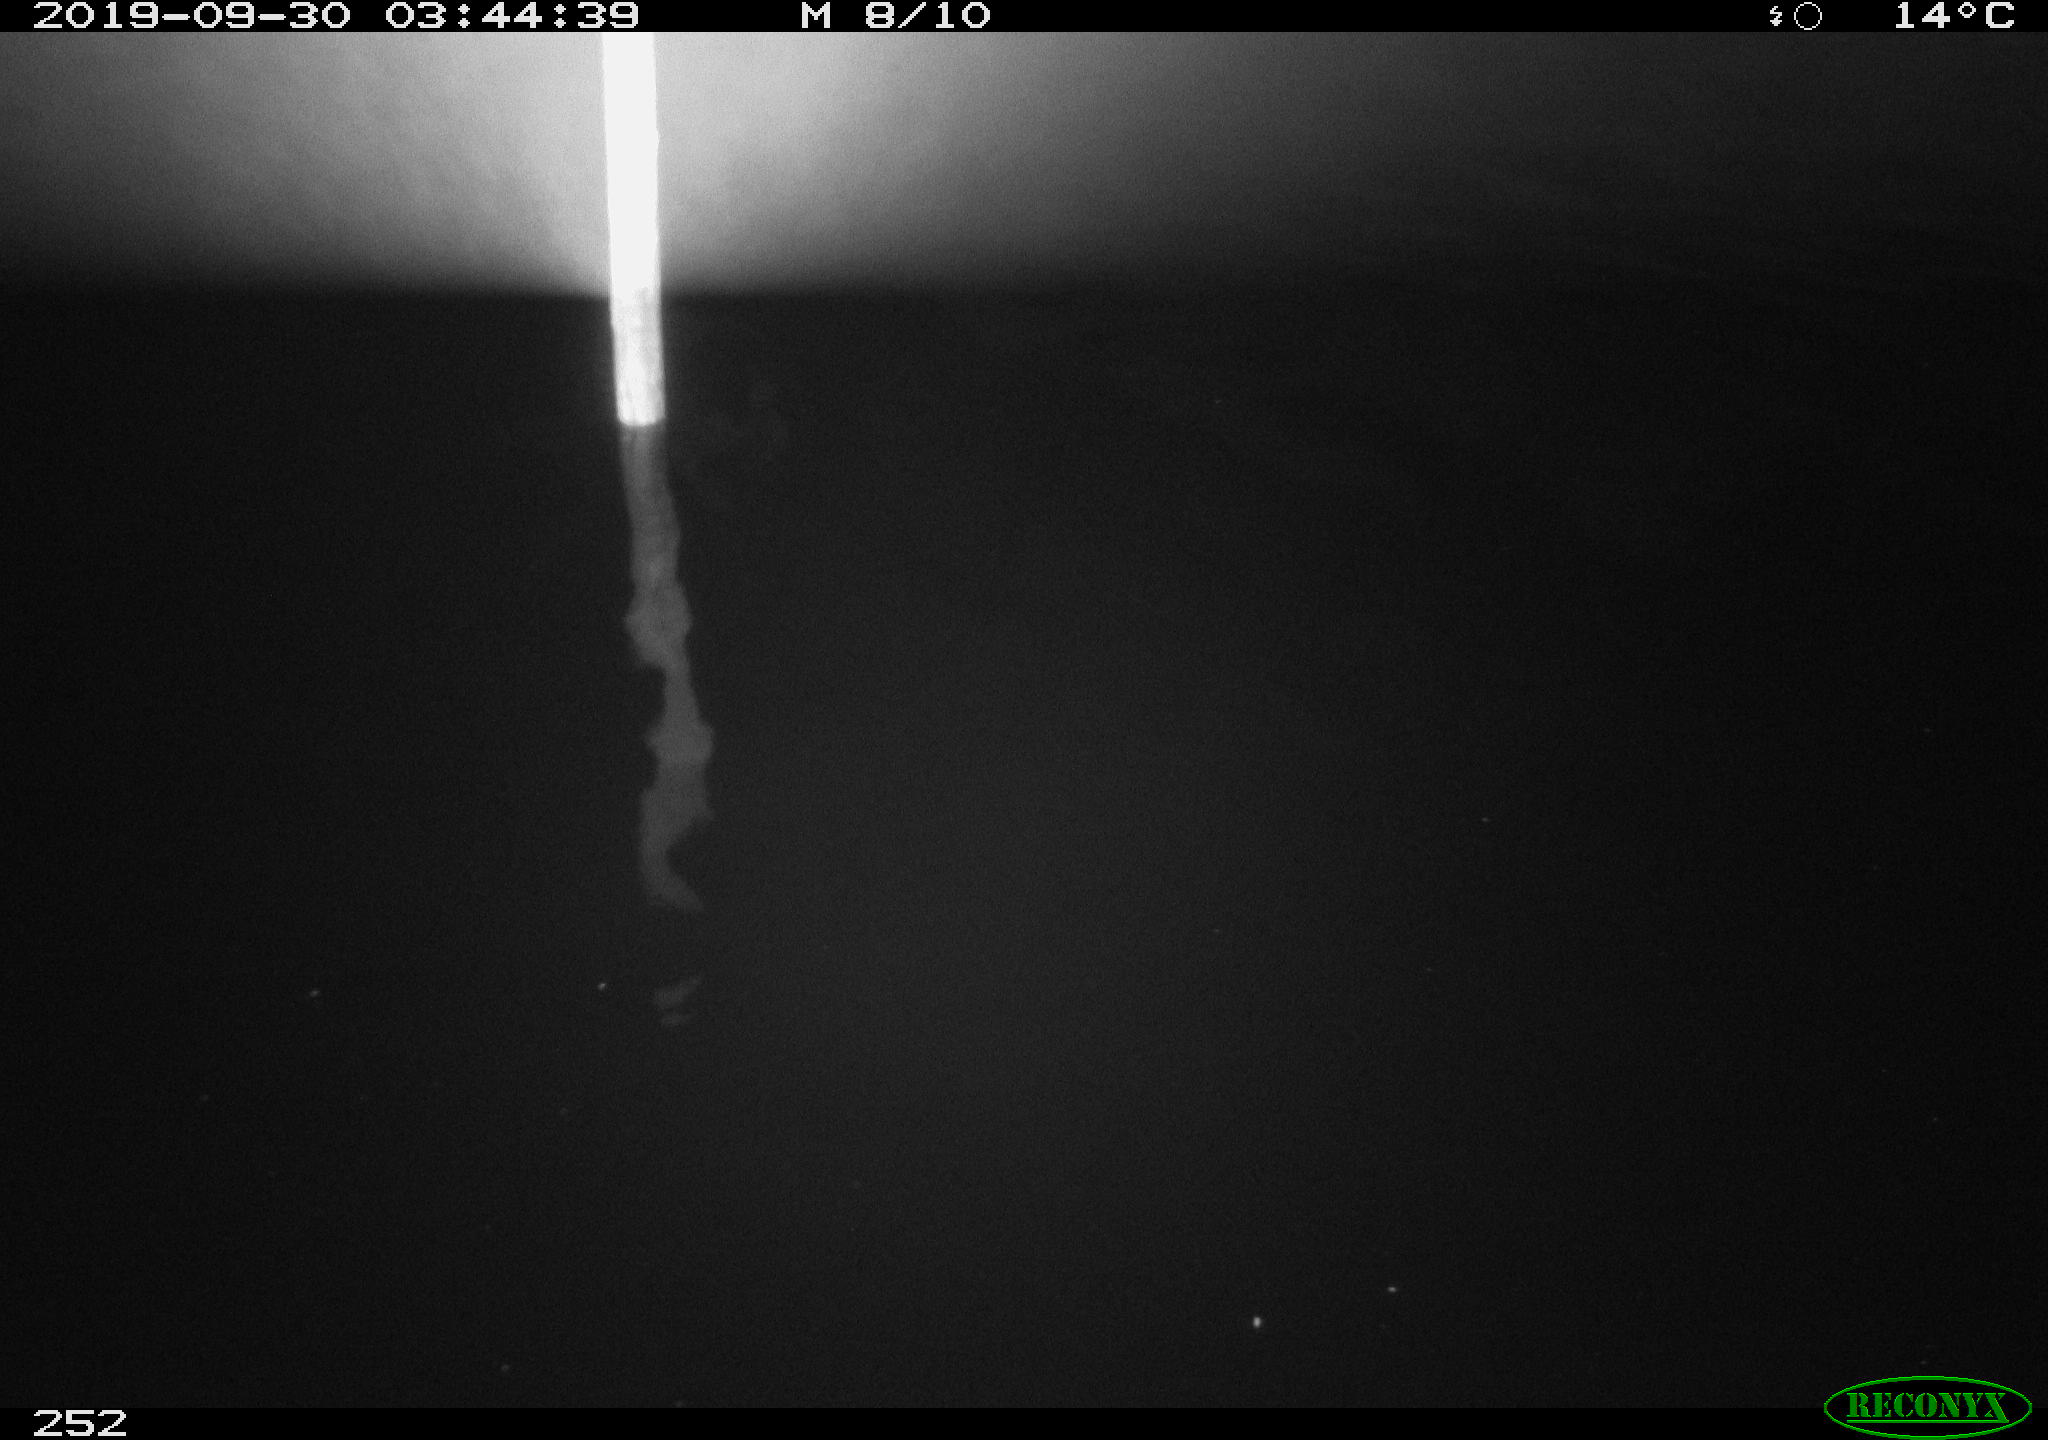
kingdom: Animalia
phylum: Chordata
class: Aves
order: Anseriformes
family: Anatidae
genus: Anas
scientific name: Anas platyrhynchos
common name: Mallard
